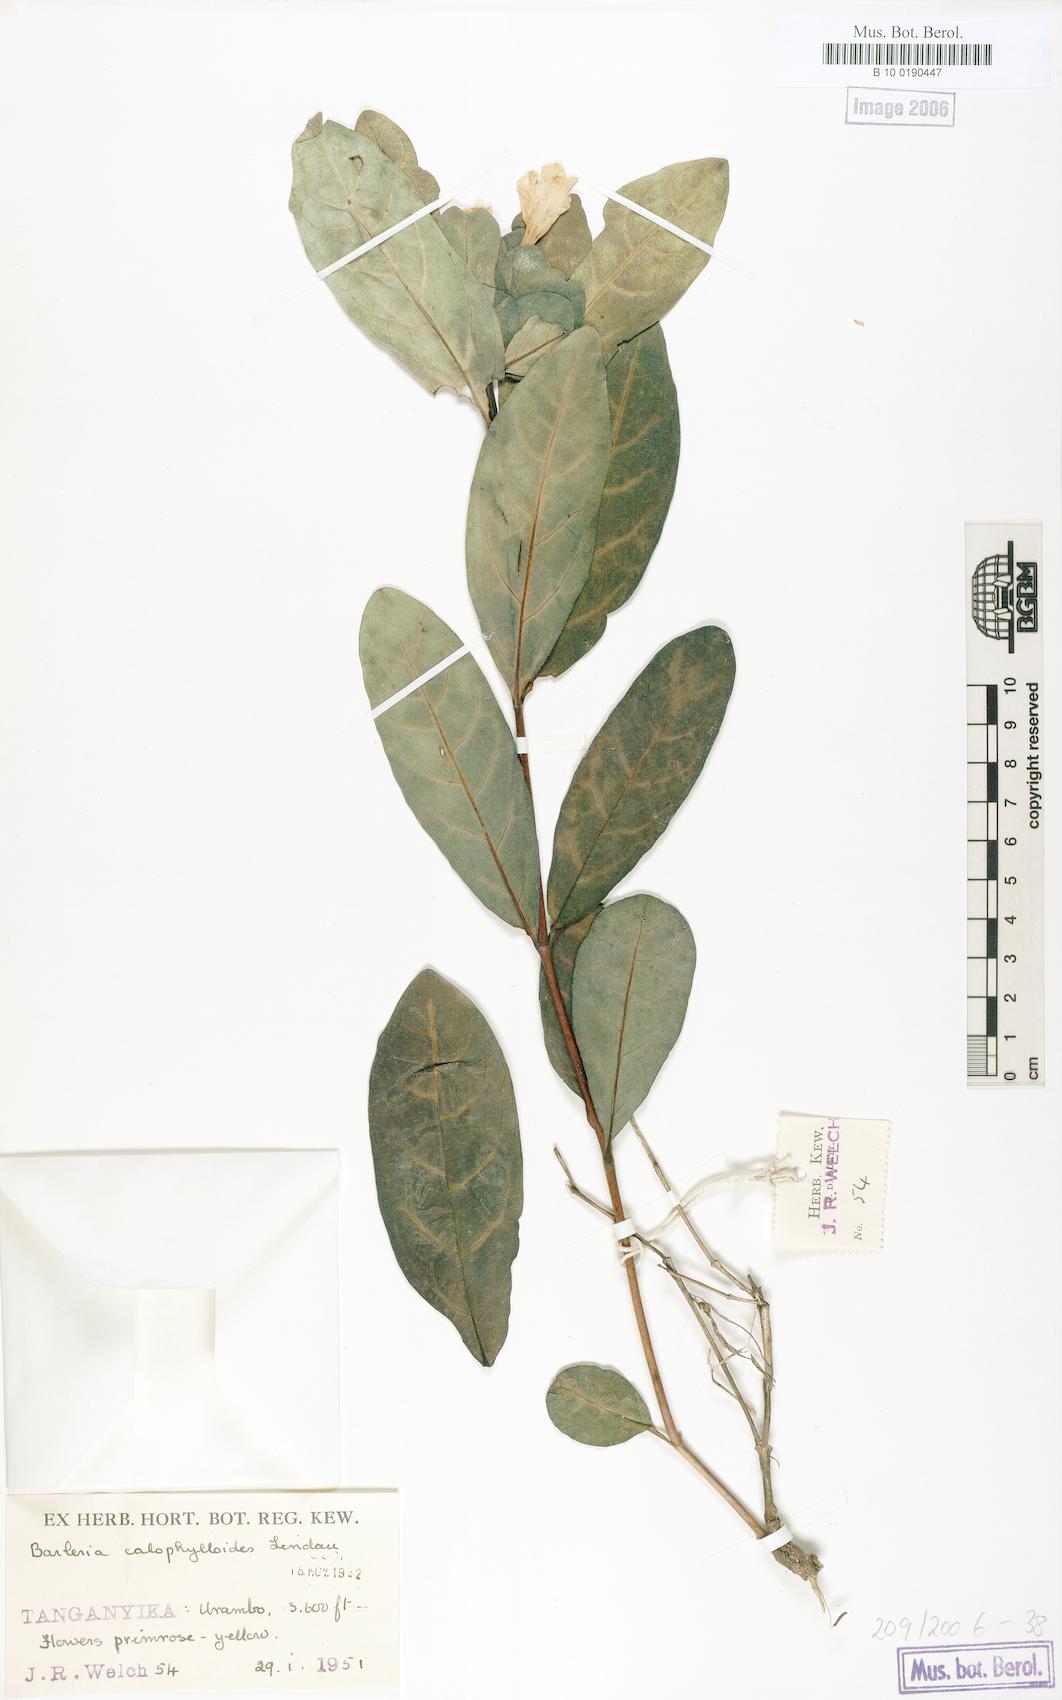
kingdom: Plantae
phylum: Tracheophyta
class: Magnoliopsida
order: Lamiales
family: Acanthaceae
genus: Barleria
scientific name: Barleria calophylloides
